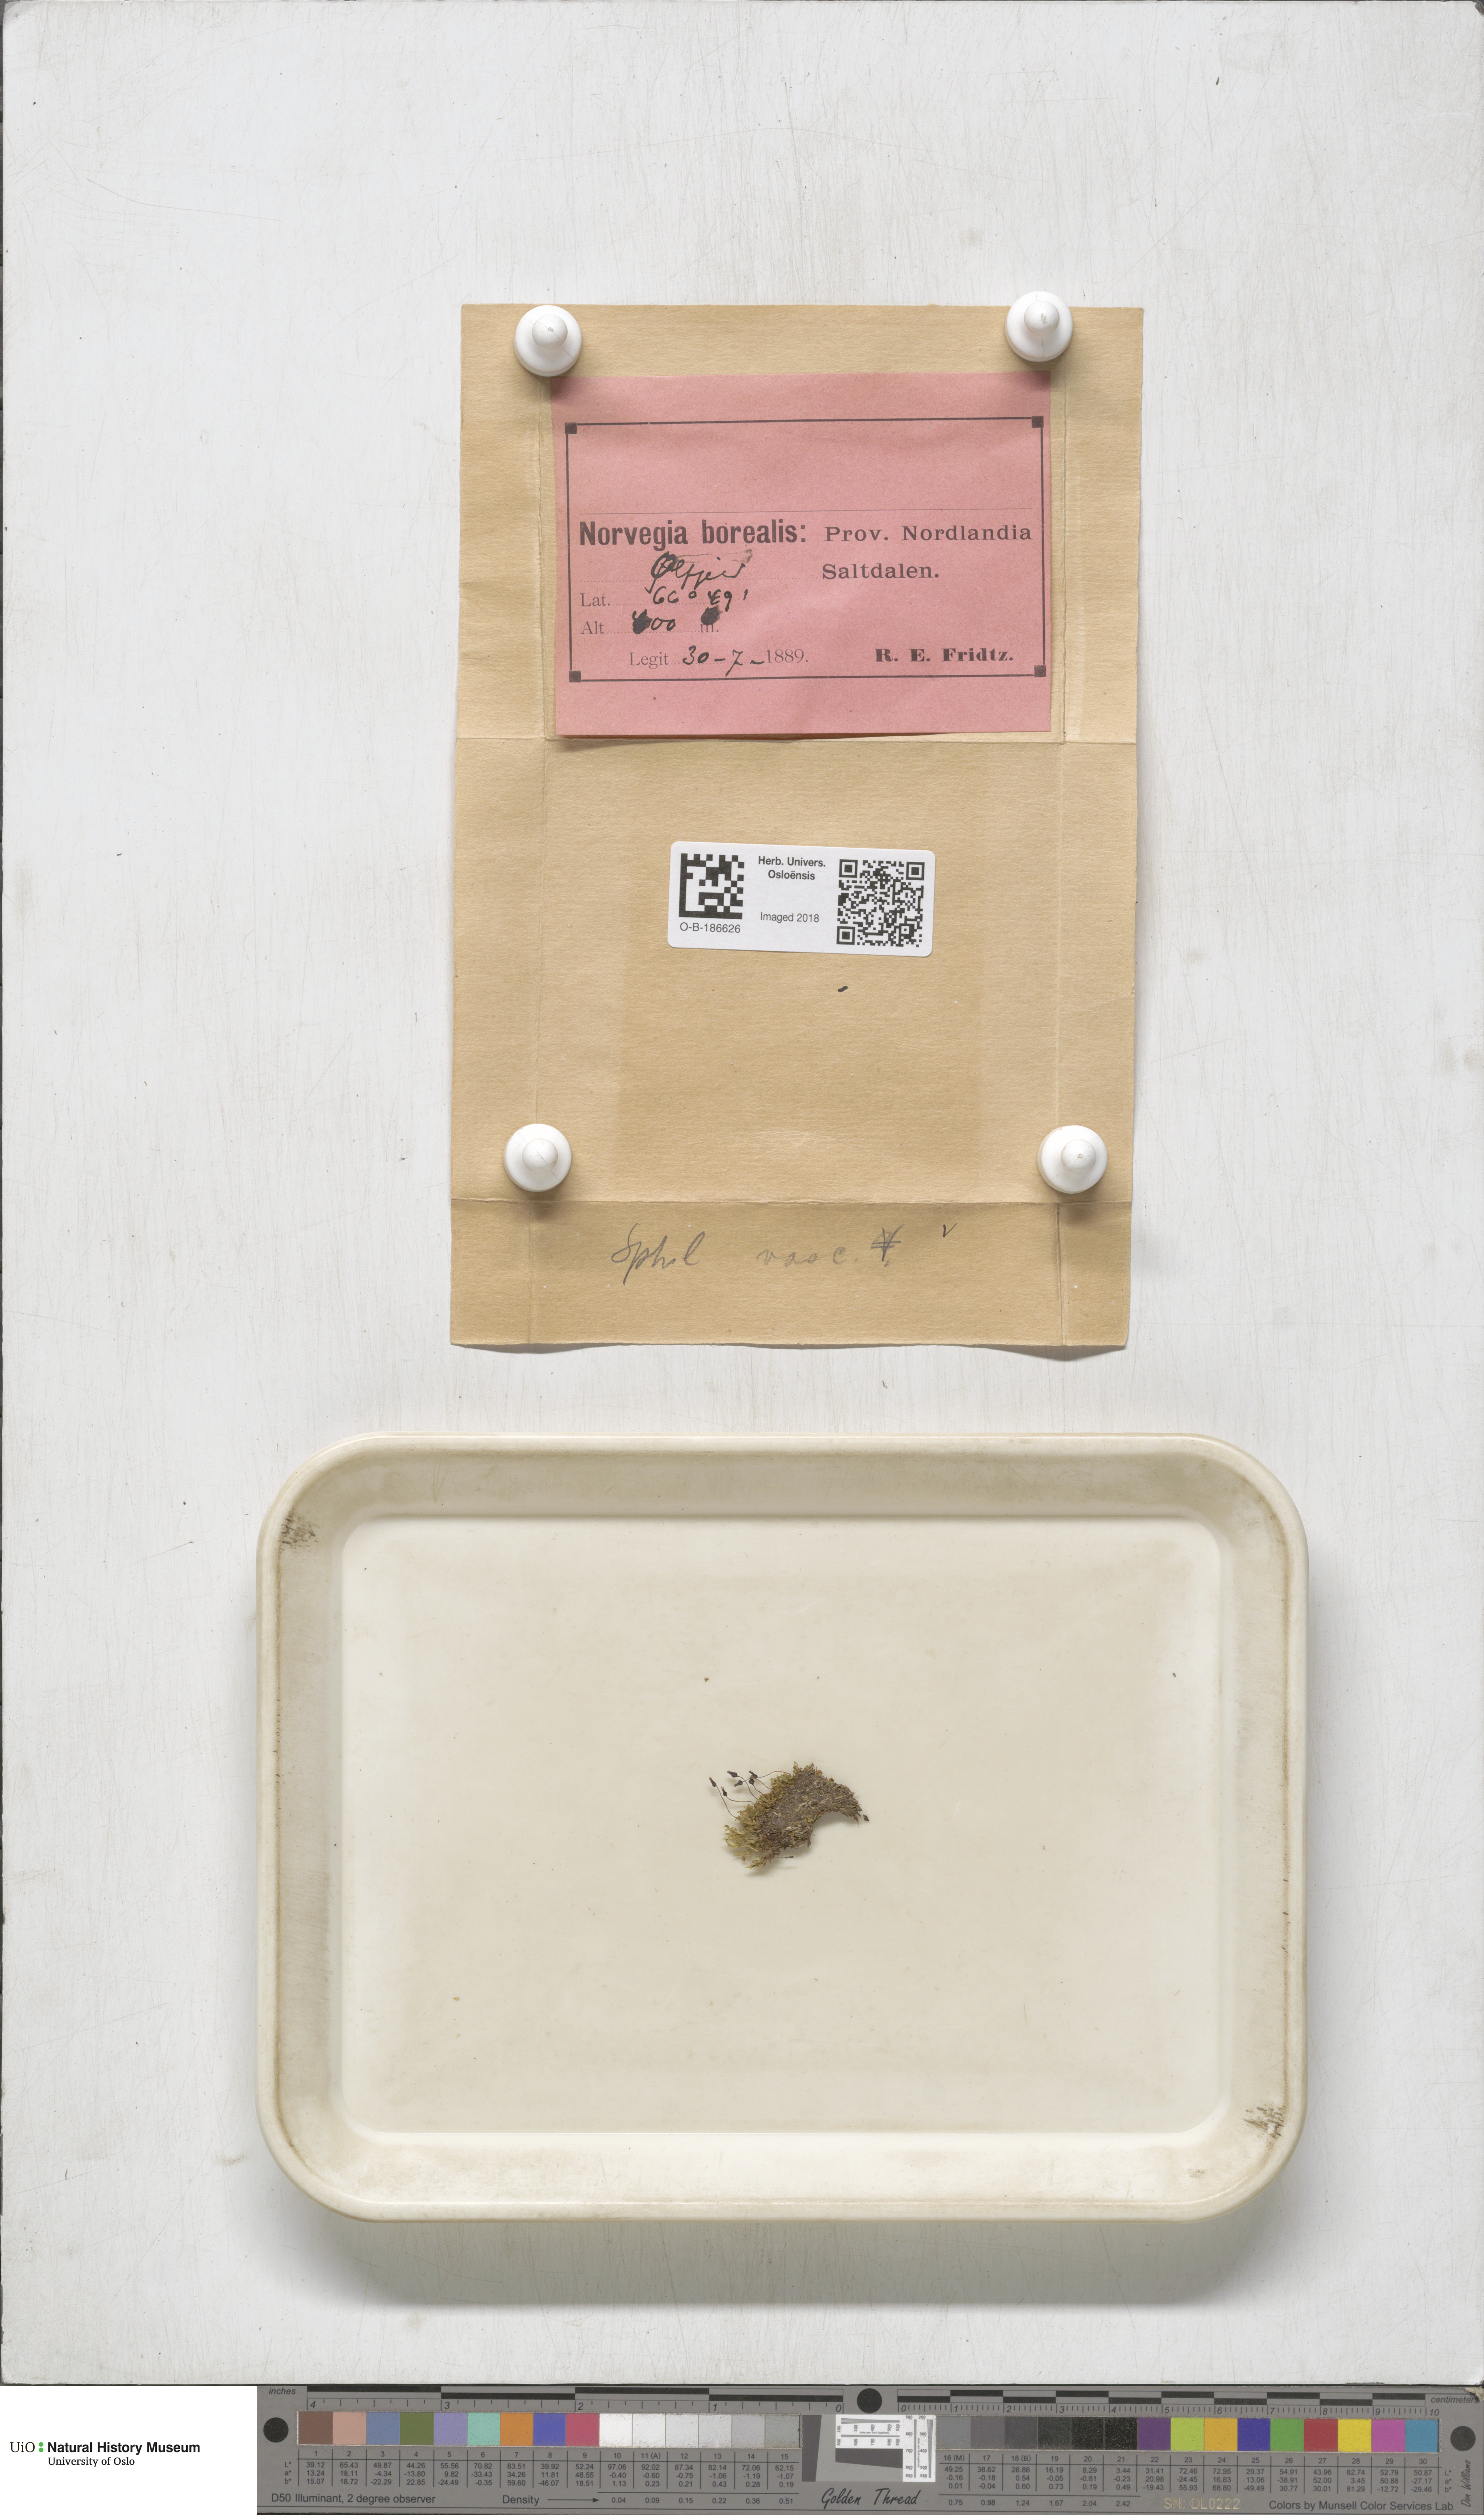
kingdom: Plantae
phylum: Bryophyta
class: Bryopsida
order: Splachnales
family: Splachnaceae
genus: Splachnum
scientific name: Splachnum vasculosum
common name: Rugged dung moss
